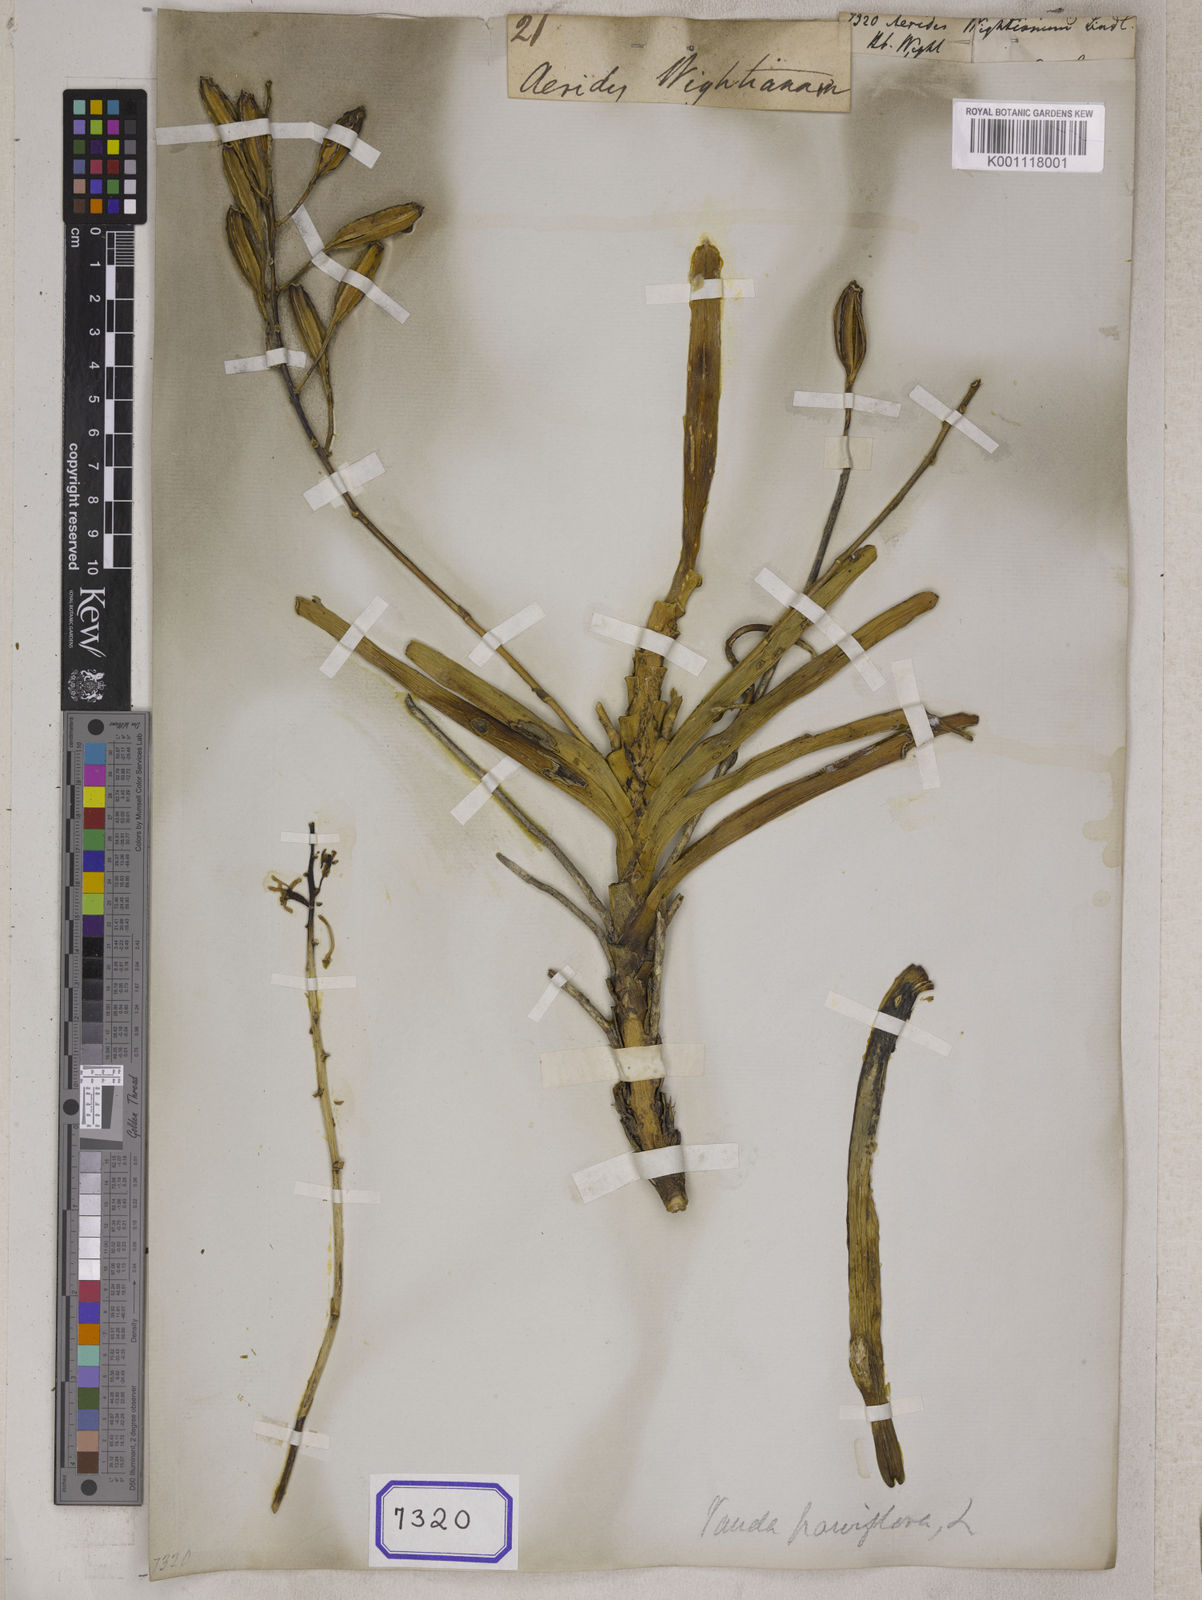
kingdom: Plantae
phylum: Tracheophyta
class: Liliopsida
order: Asparagales
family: Orchidaceae
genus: Vanda
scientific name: Vanda testacea
